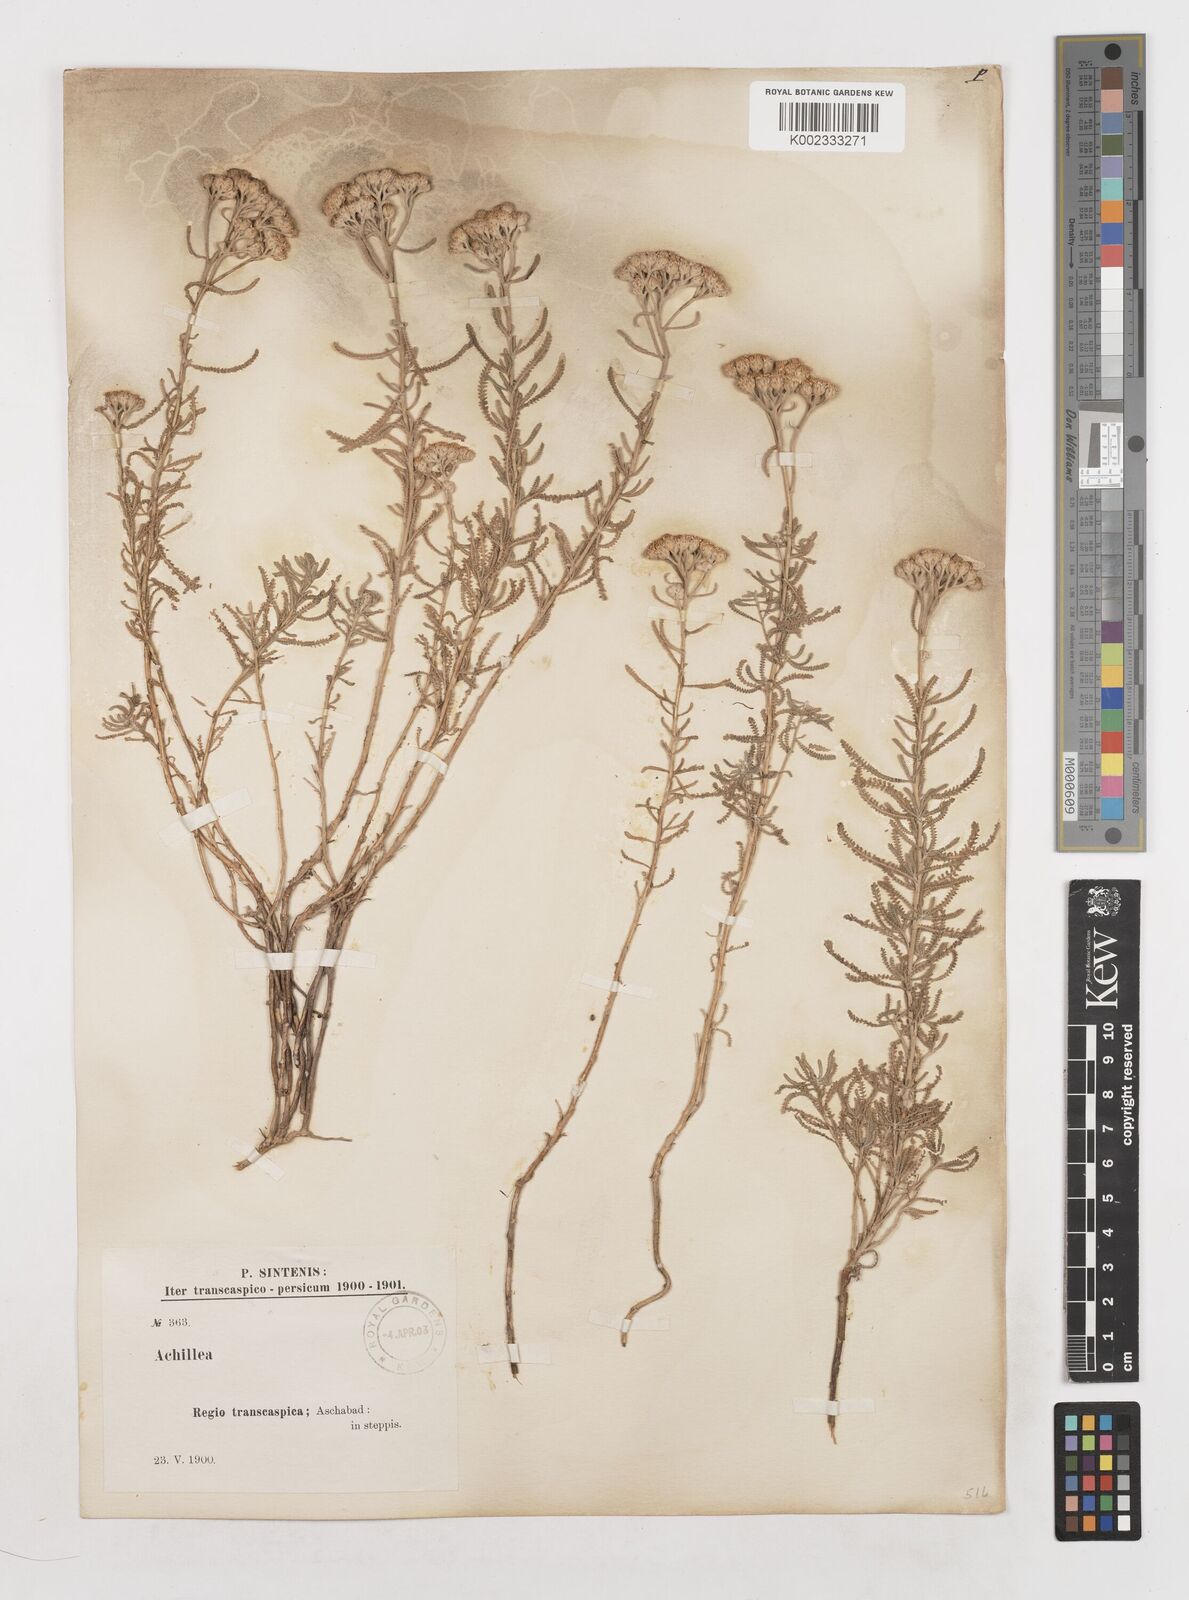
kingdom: Plantae
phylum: Tracheophyta
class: Magnoliopsida
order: Asterales
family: Asteraceae
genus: Achillea
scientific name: Achillea tenuifolia
